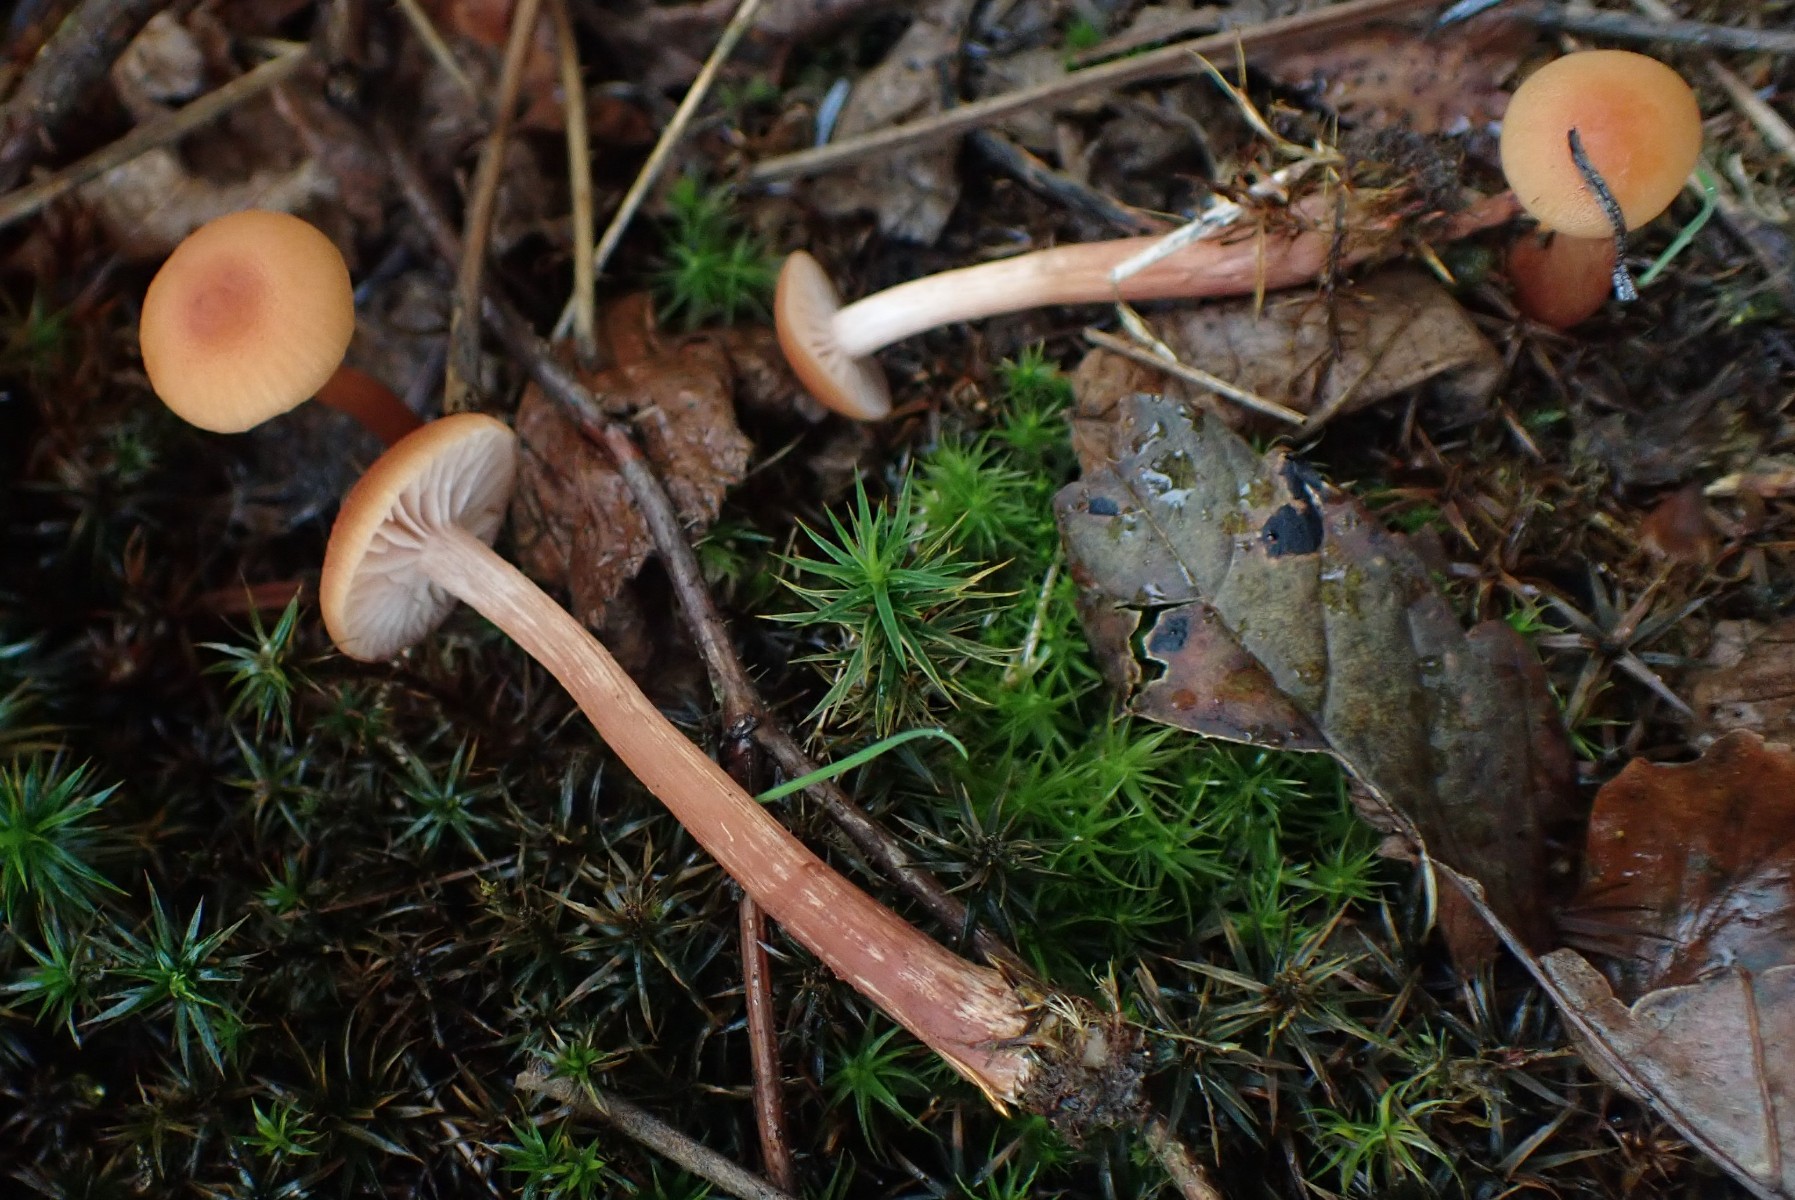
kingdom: Fungi
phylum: Basidiomycota
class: Agaricomycetes
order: Agaricales
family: Hydnangiaceae
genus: Laccaria
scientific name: Laccaria proxima
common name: stor ametysthat
